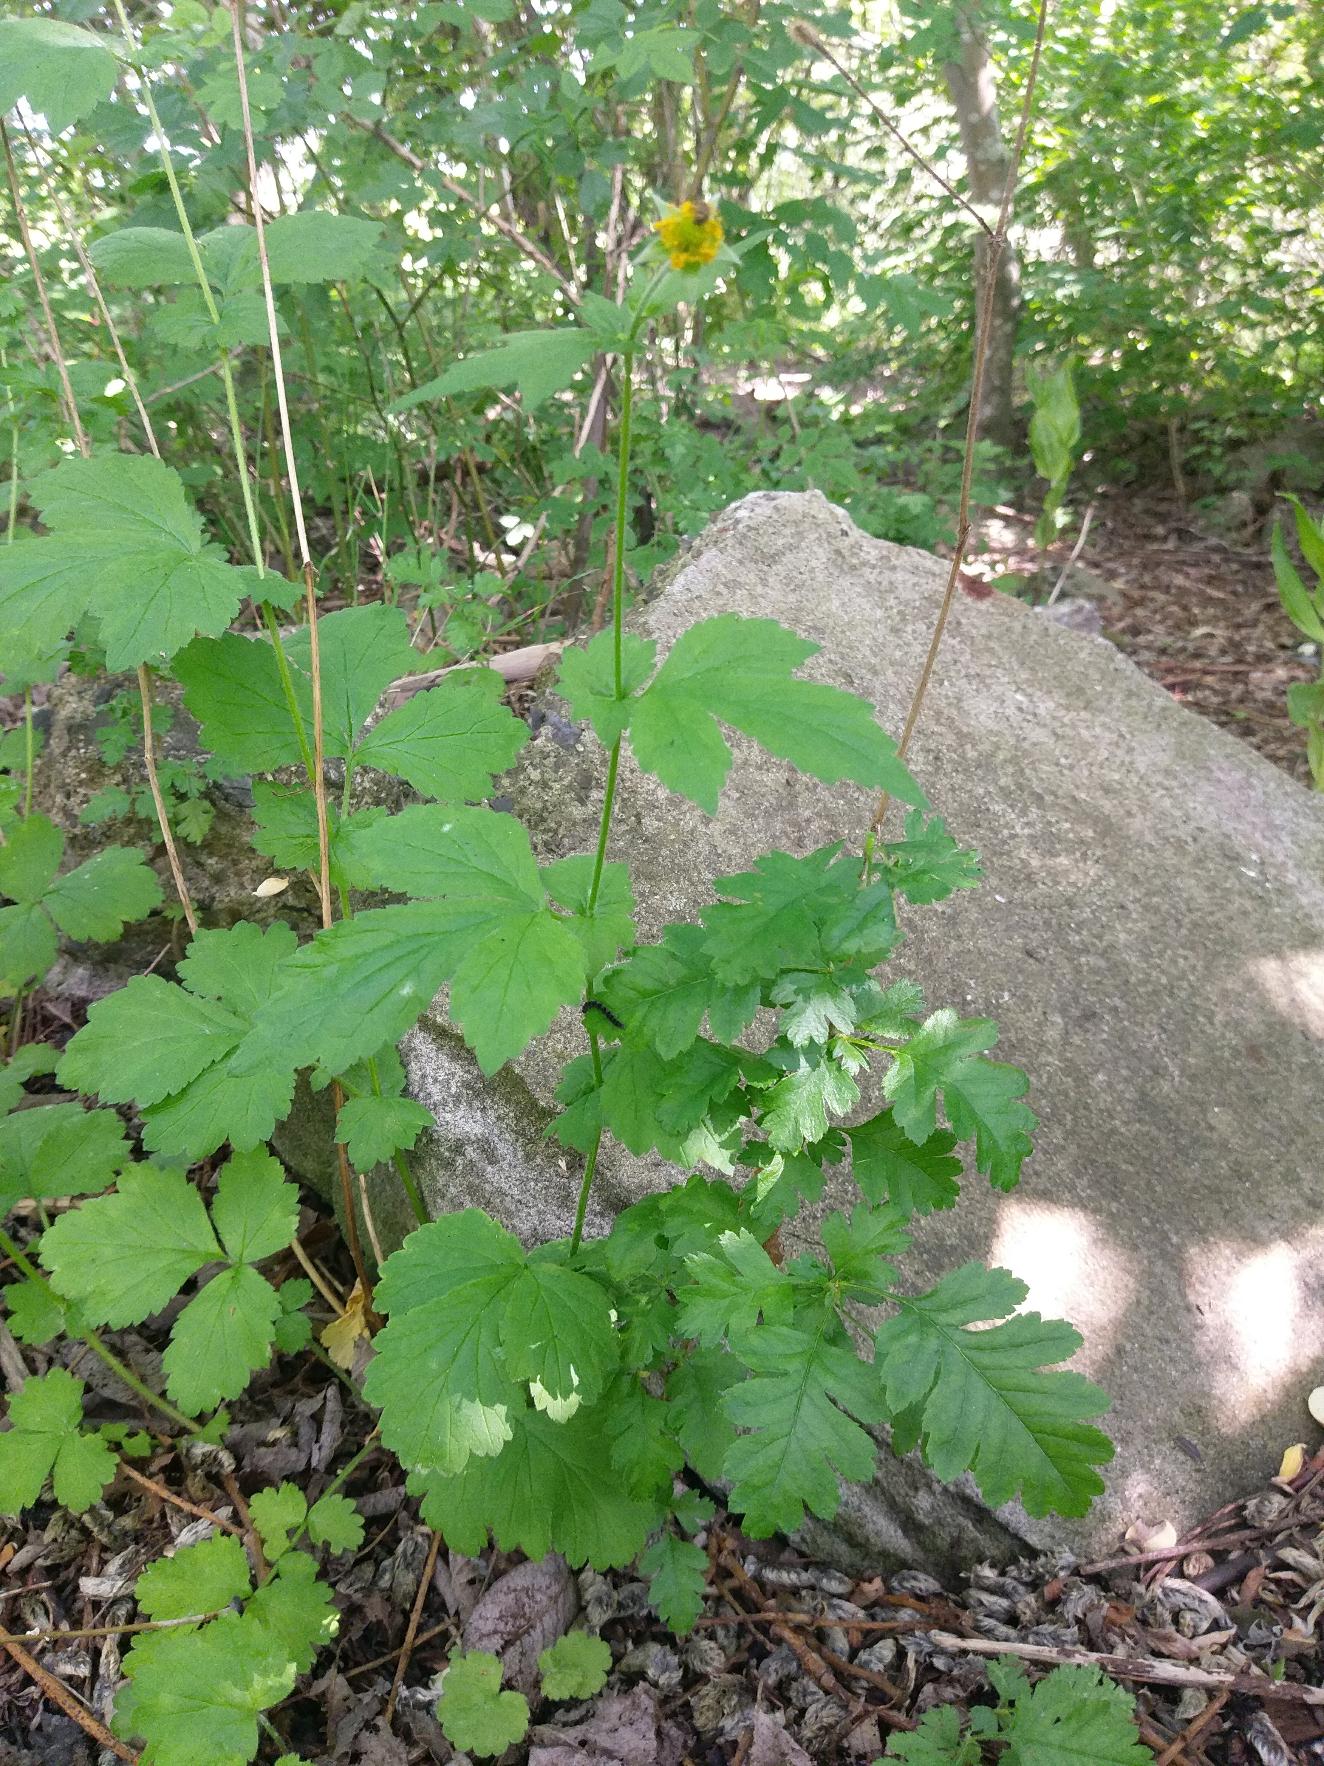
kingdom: Plantae
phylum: Tracheophyta
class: Magnoliopsida
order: Rosales
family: Rosaceae
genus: Geum
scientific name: Geum urbanum
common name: Feber-nellikerod
